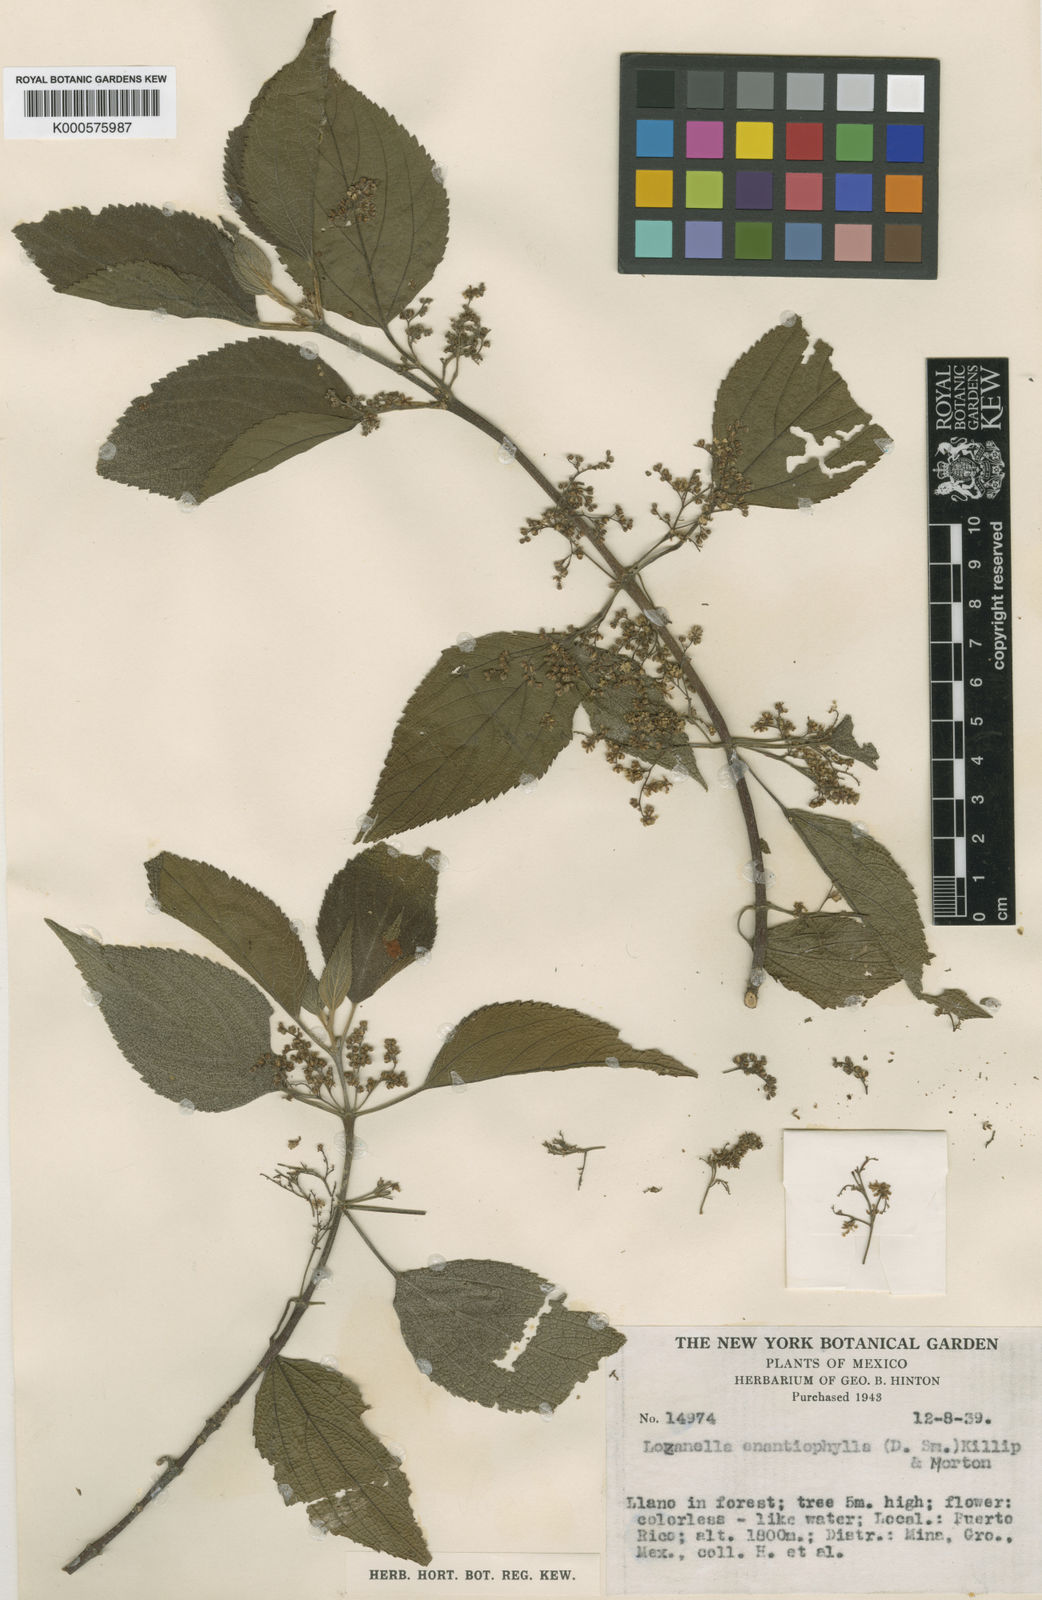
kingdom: Plantae
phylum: Tracheophyta
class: Magnoliopsida
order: Rosales
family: Cannabaceae
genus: Lozanella
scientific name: Lozanella enantiophylla
